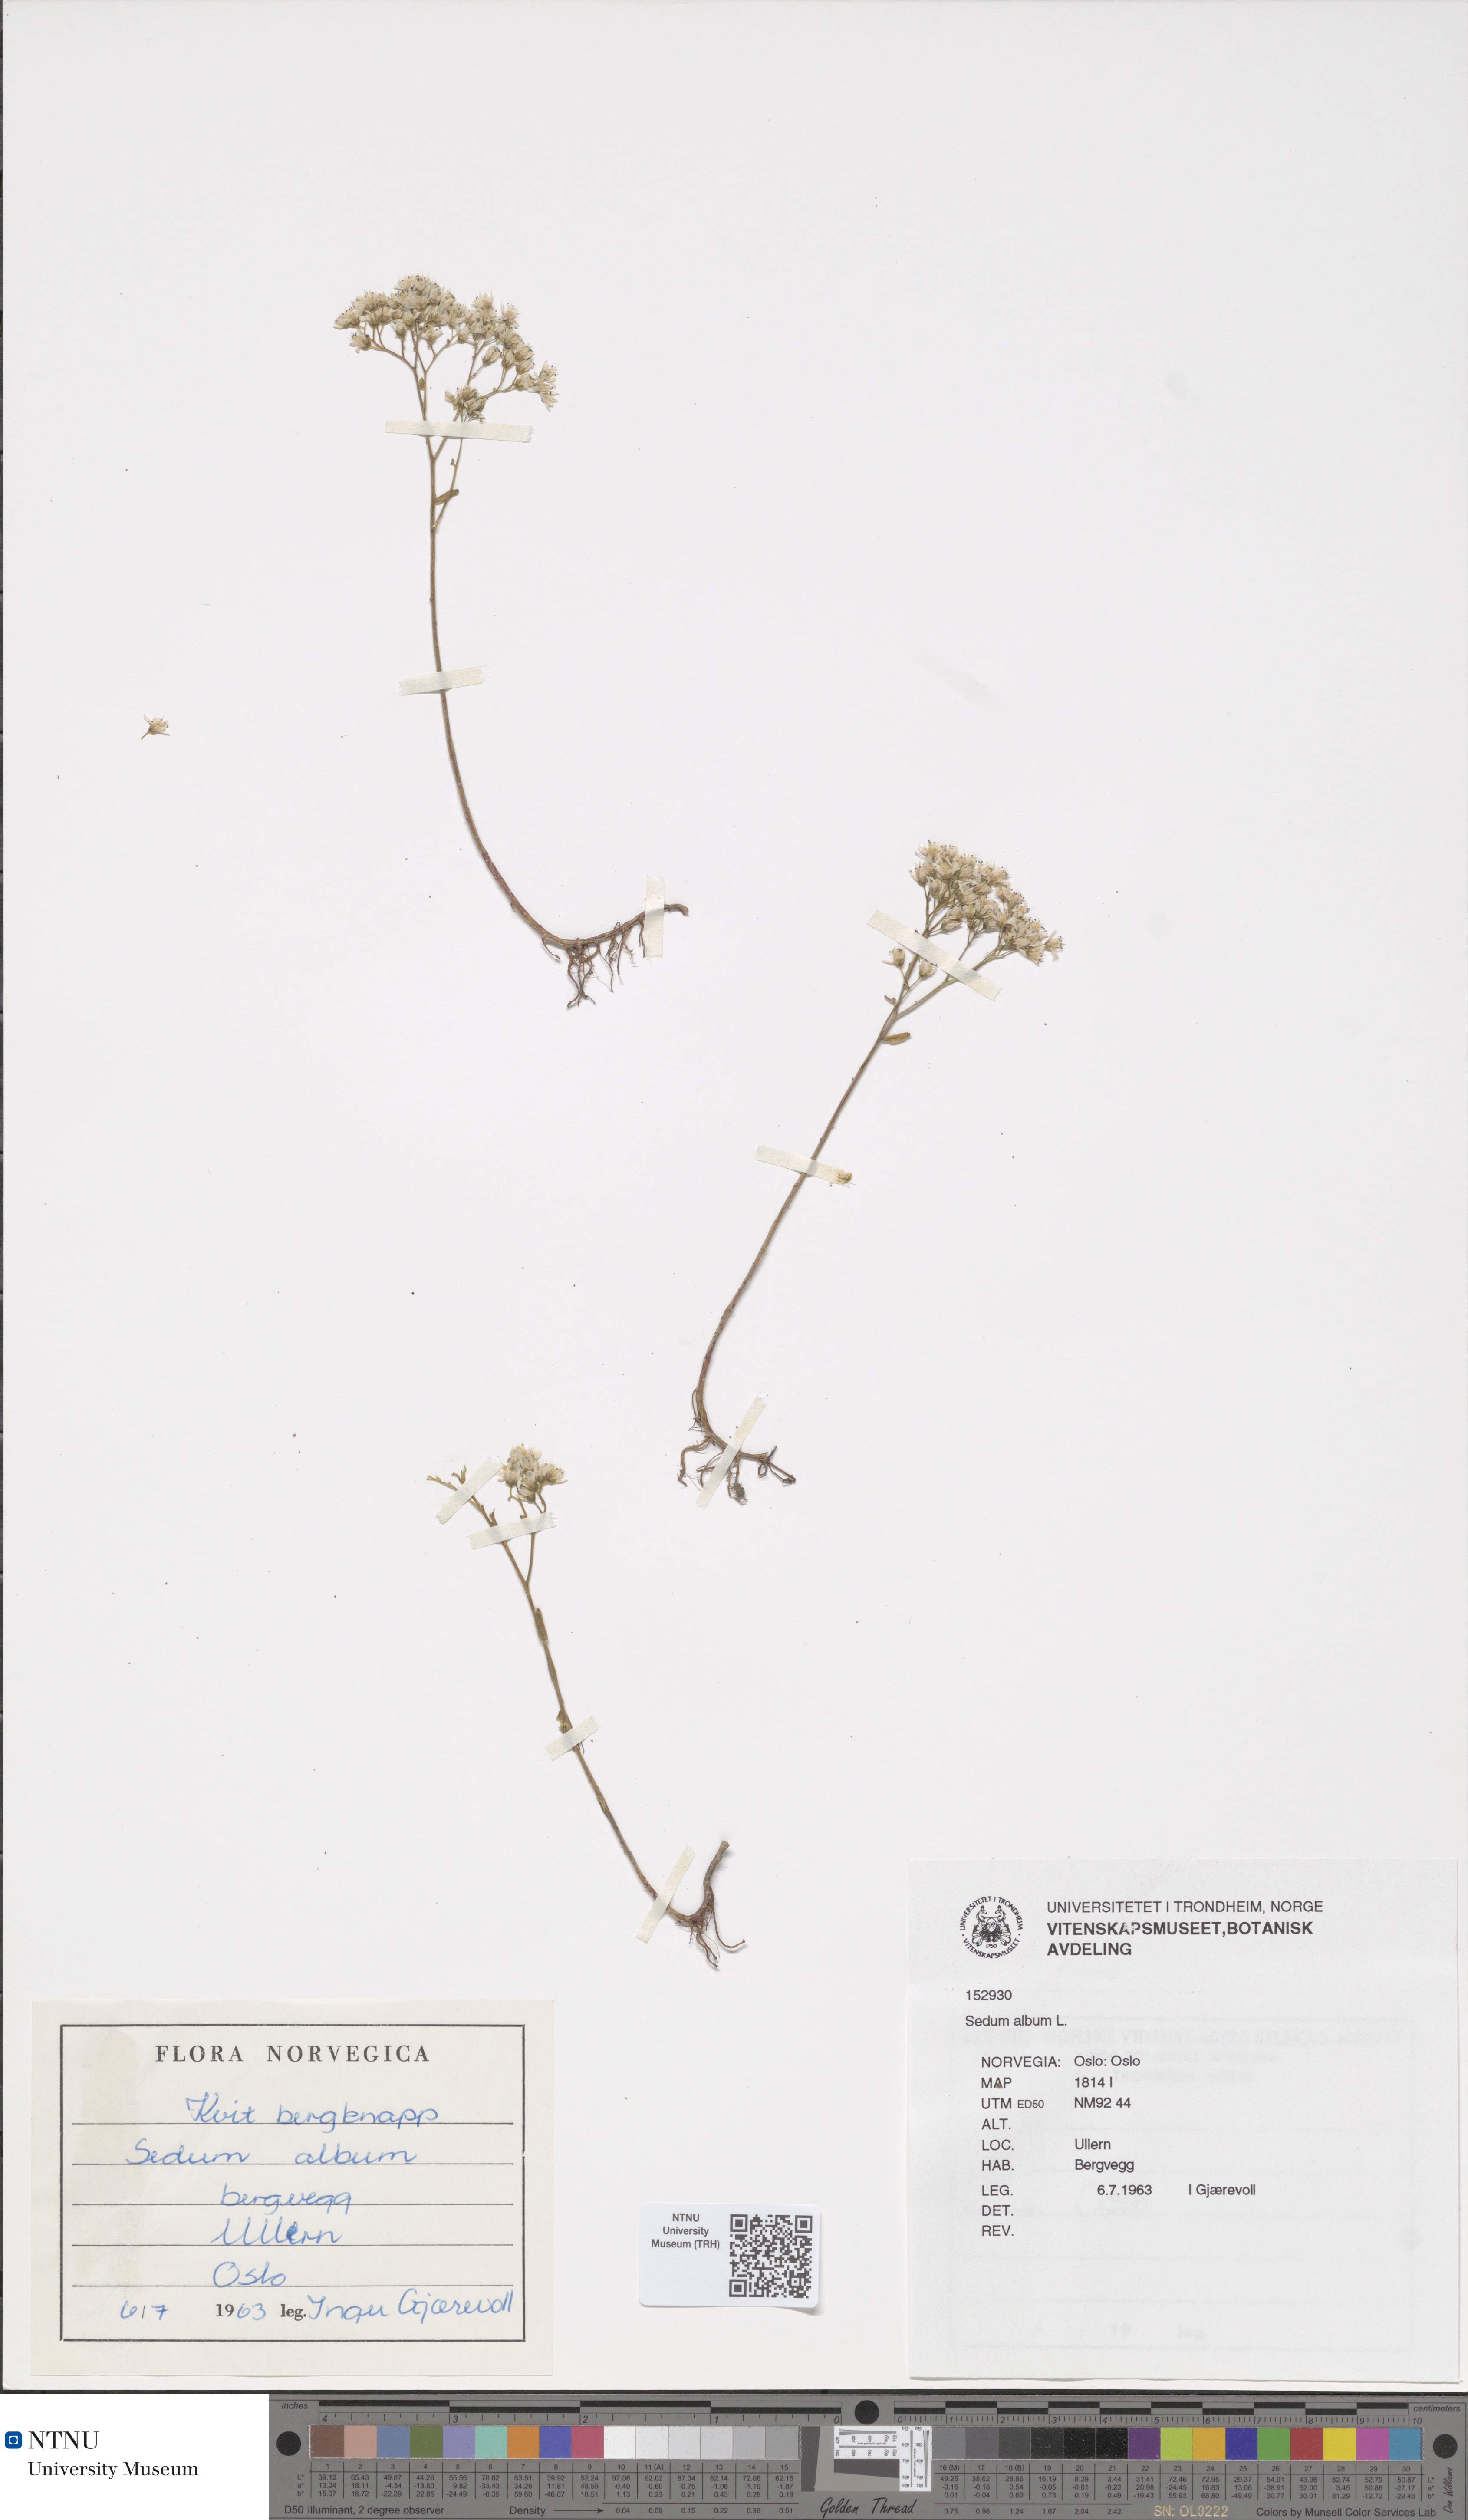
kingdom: Plantae
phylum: Tracheophyta
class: Magnoliopsida
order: Saxifragales
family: Crassulaceae
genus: Sedum
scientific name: Sedum album
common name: White stonecrop
